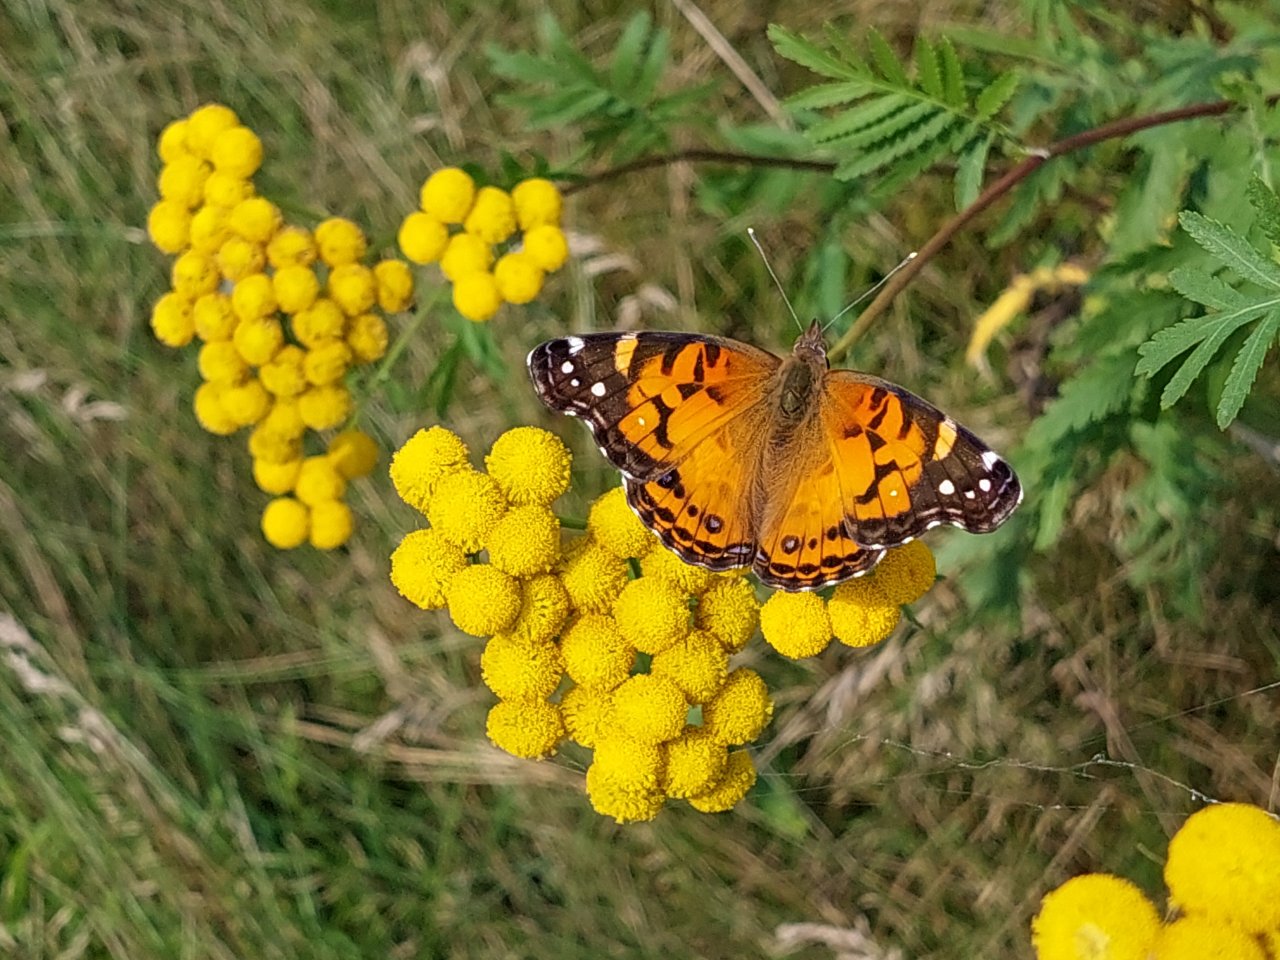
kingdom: Animalia
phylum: Arthropoda
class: Insecta
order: Lepidoptera
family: Nymphalidae
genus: Vanessa
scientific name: Vanessa virginiensis
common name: American Lady
